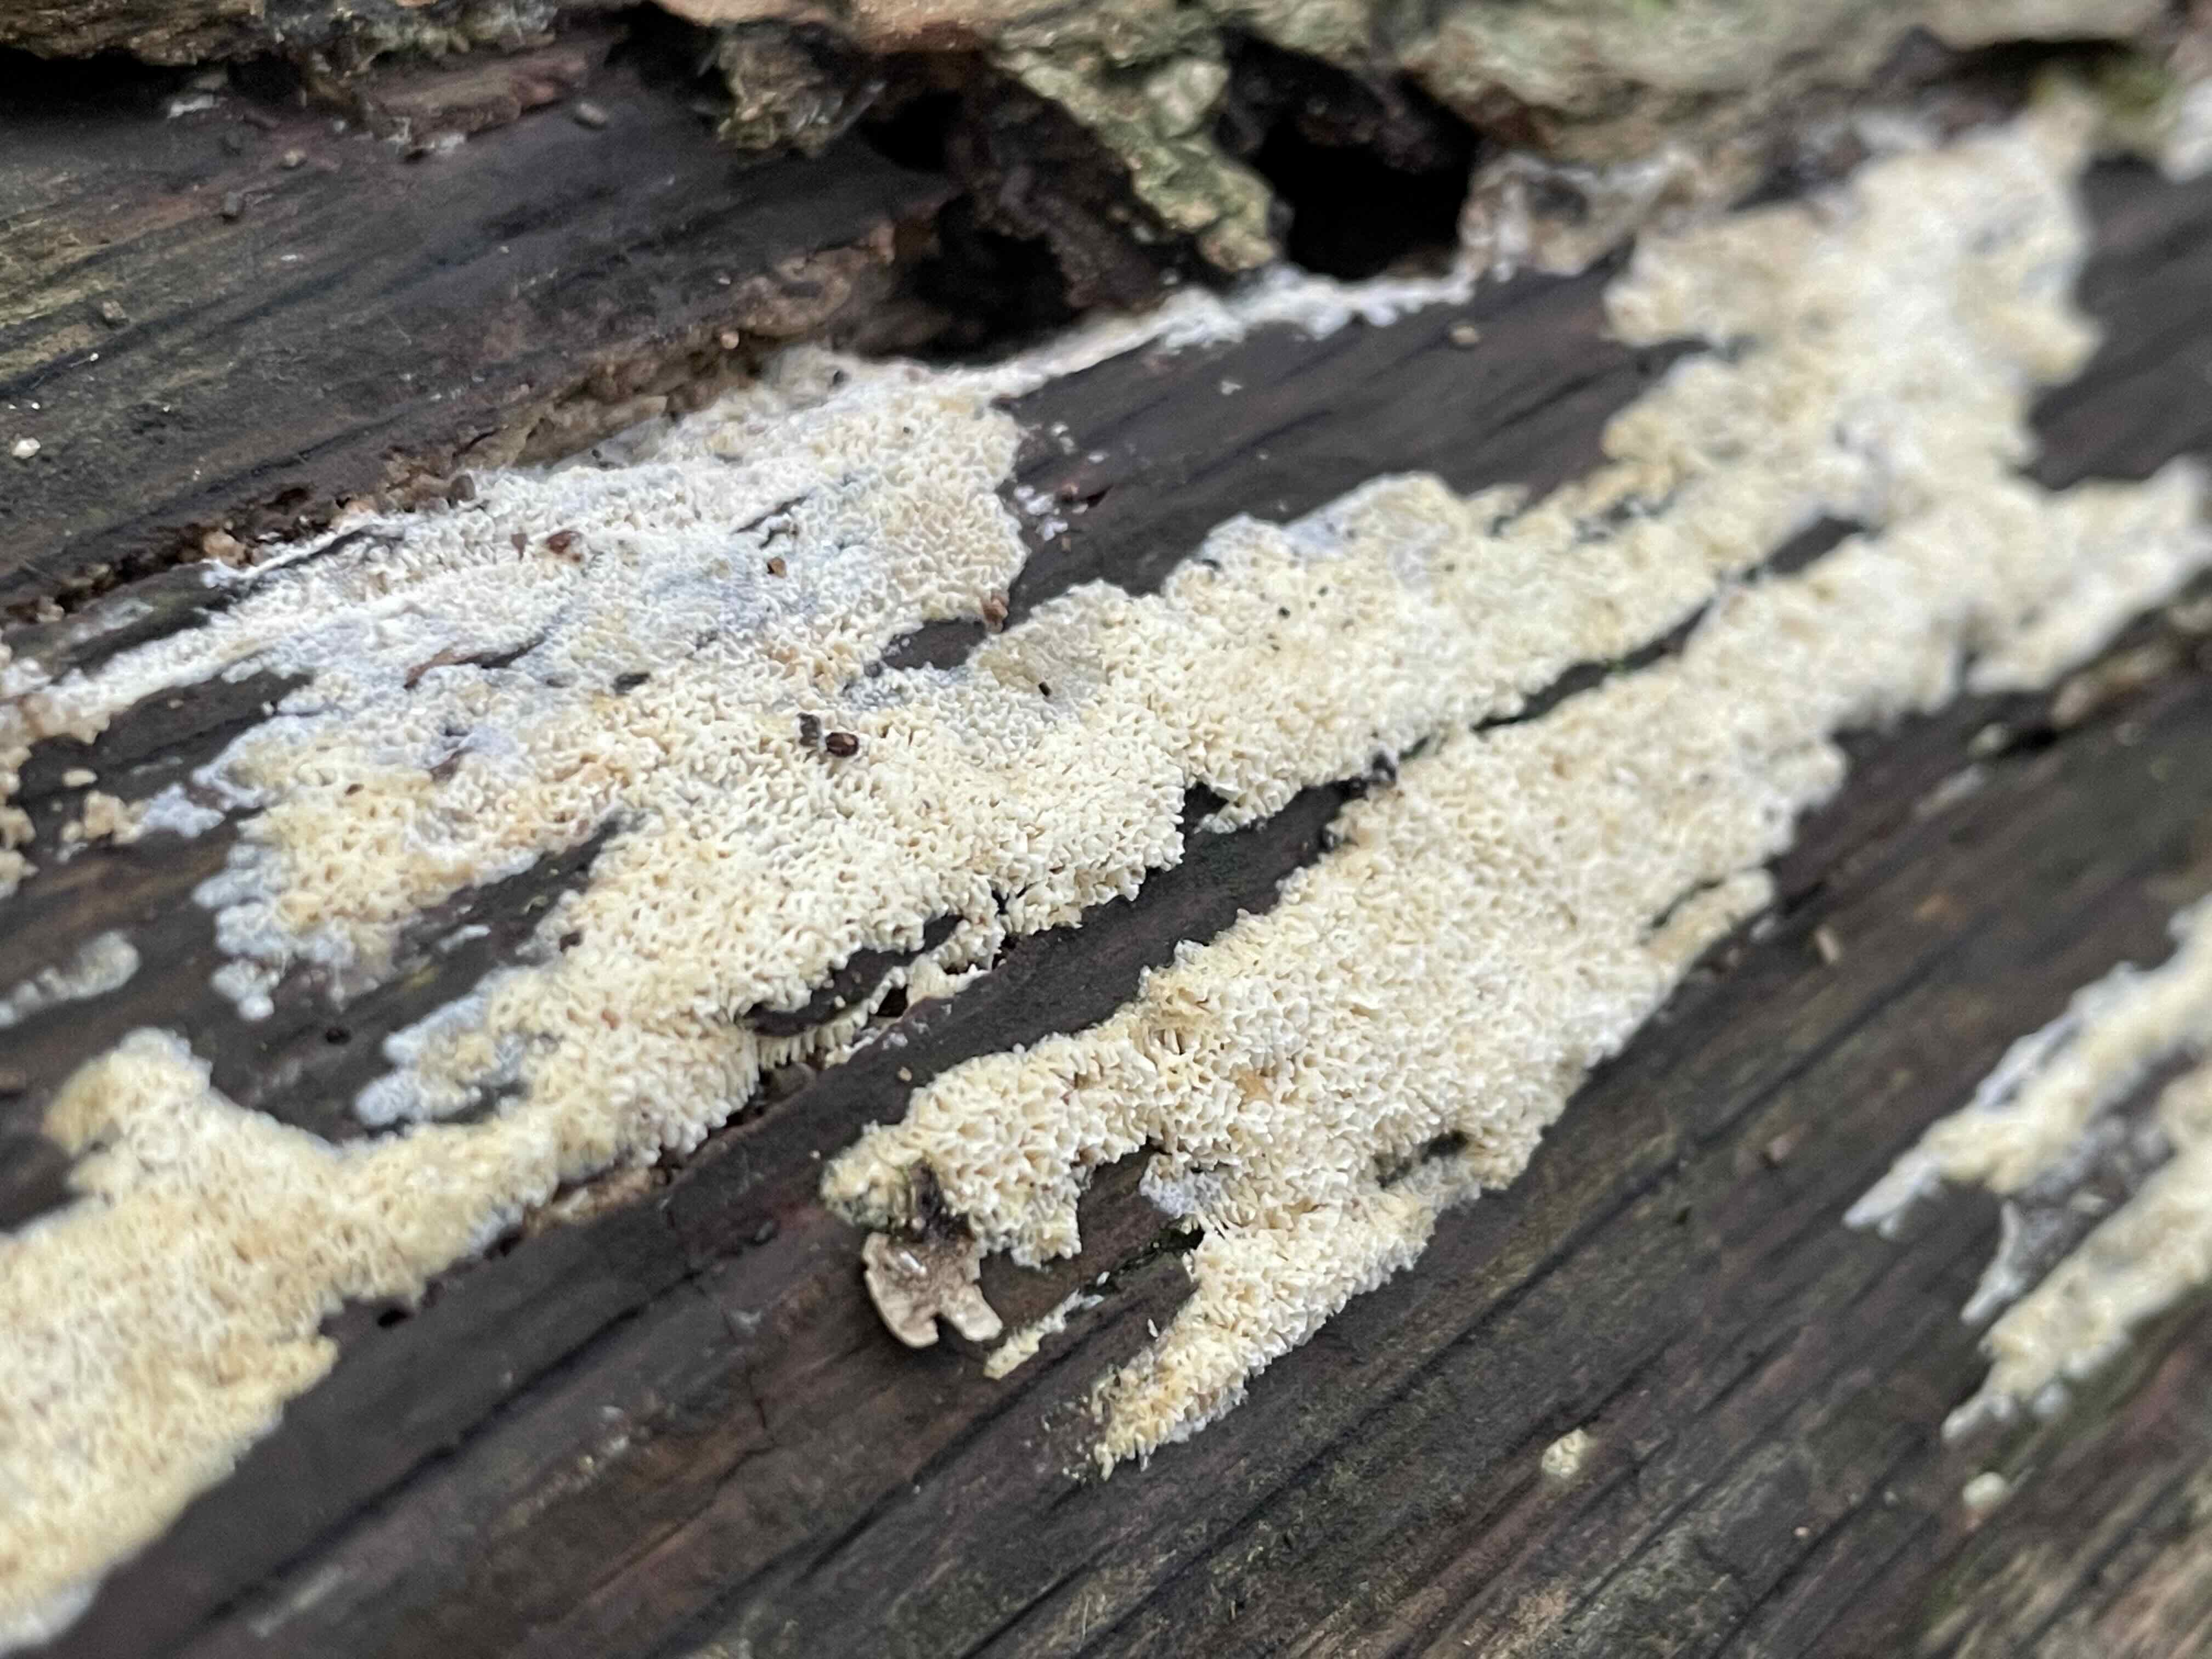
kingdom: Fungi
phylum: Basidiomycota
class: Agaricomycetes
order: Hymenochaetales
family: Schizoporaceae
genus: Xylodon
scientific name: Xylodon subtropicus
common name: labyrint-tandsvamp
